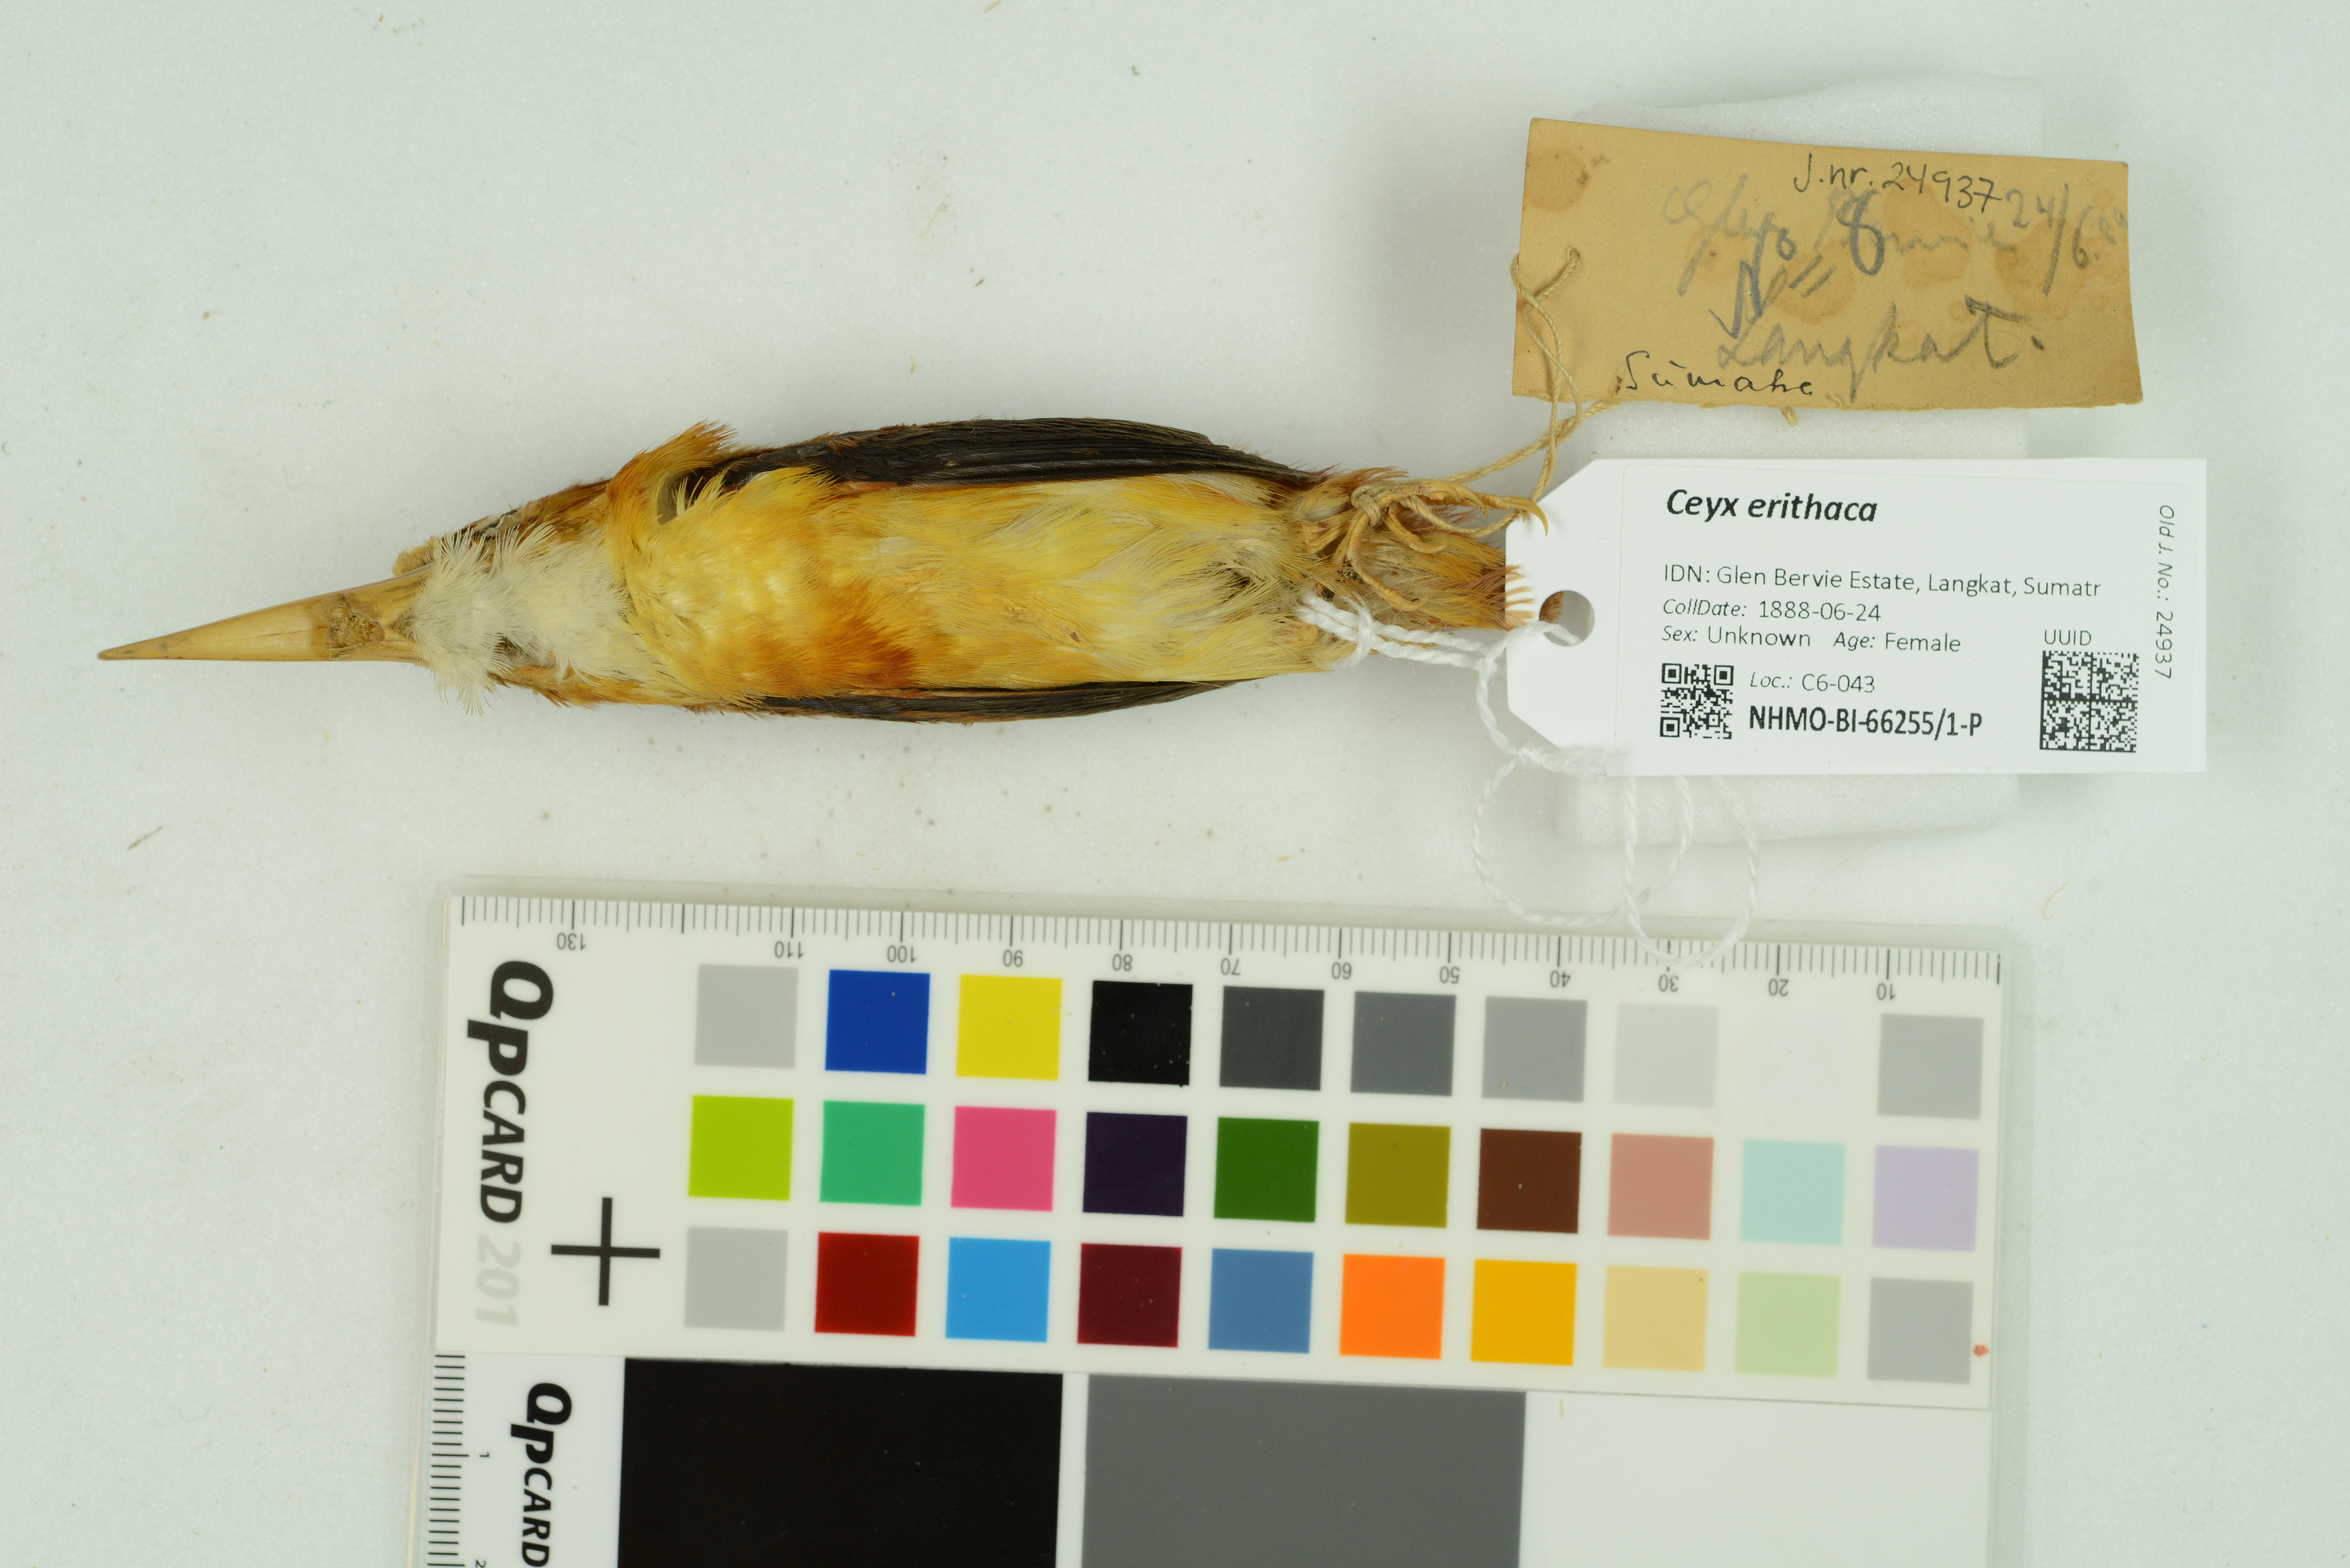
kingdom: Animalia
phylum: Chordata
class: Aves
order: Coraciiformes
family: Alcedinidae
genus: Ceyx
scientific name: Ceyx erithaca
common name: Oriental dwarf kingfisher
